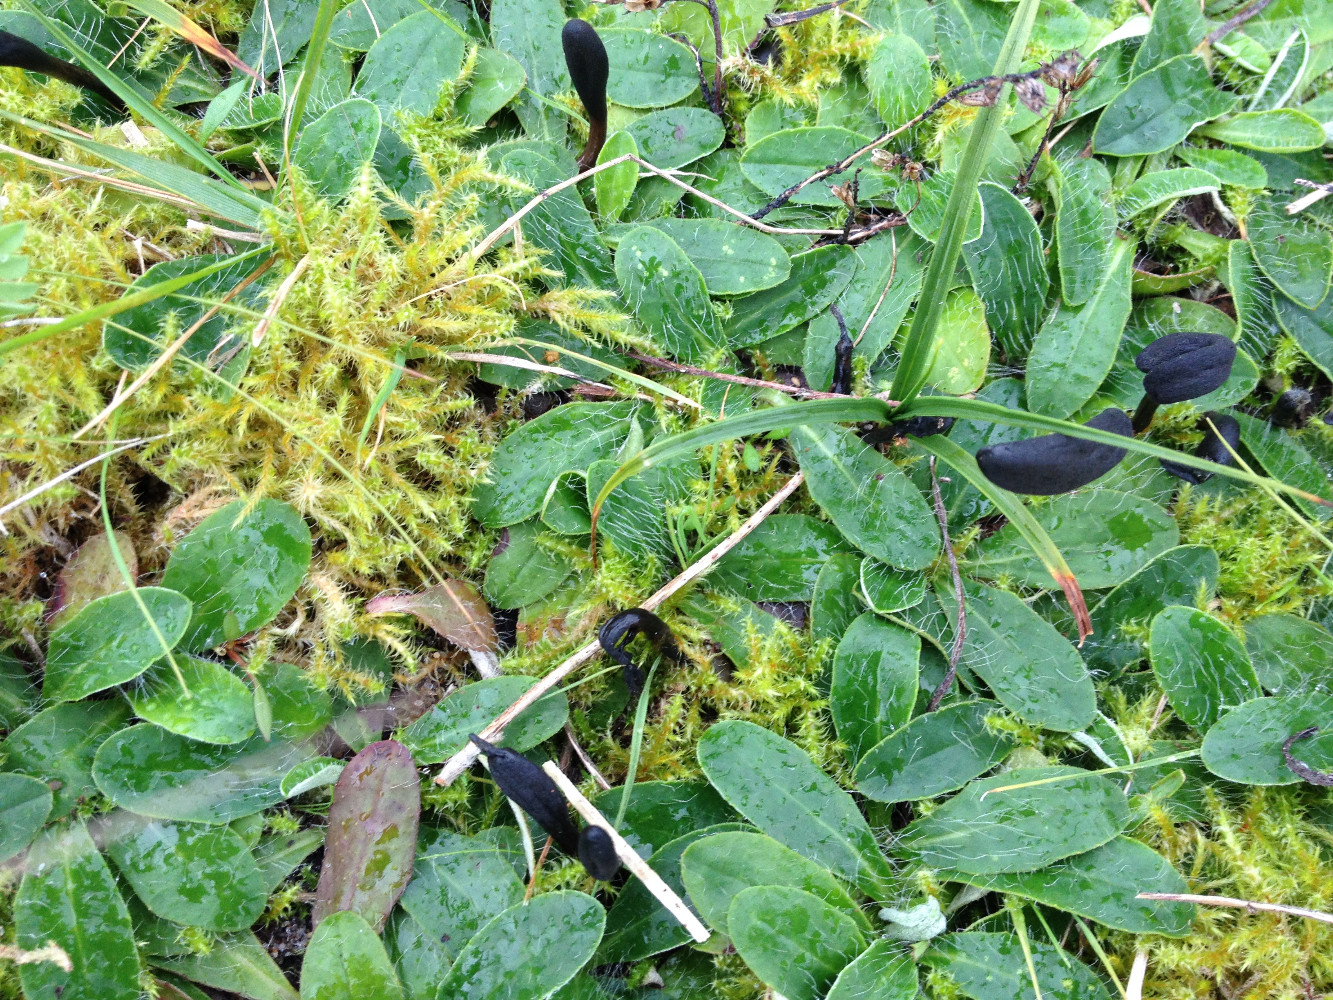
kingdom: Fungi
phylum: Ascomycota
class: Geoglossomycetes
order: Geoglossales
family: Geoglossaceae
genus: Glutinoglossum
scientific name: Glutinoglossum glutinosum
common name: slimet jordtunge
